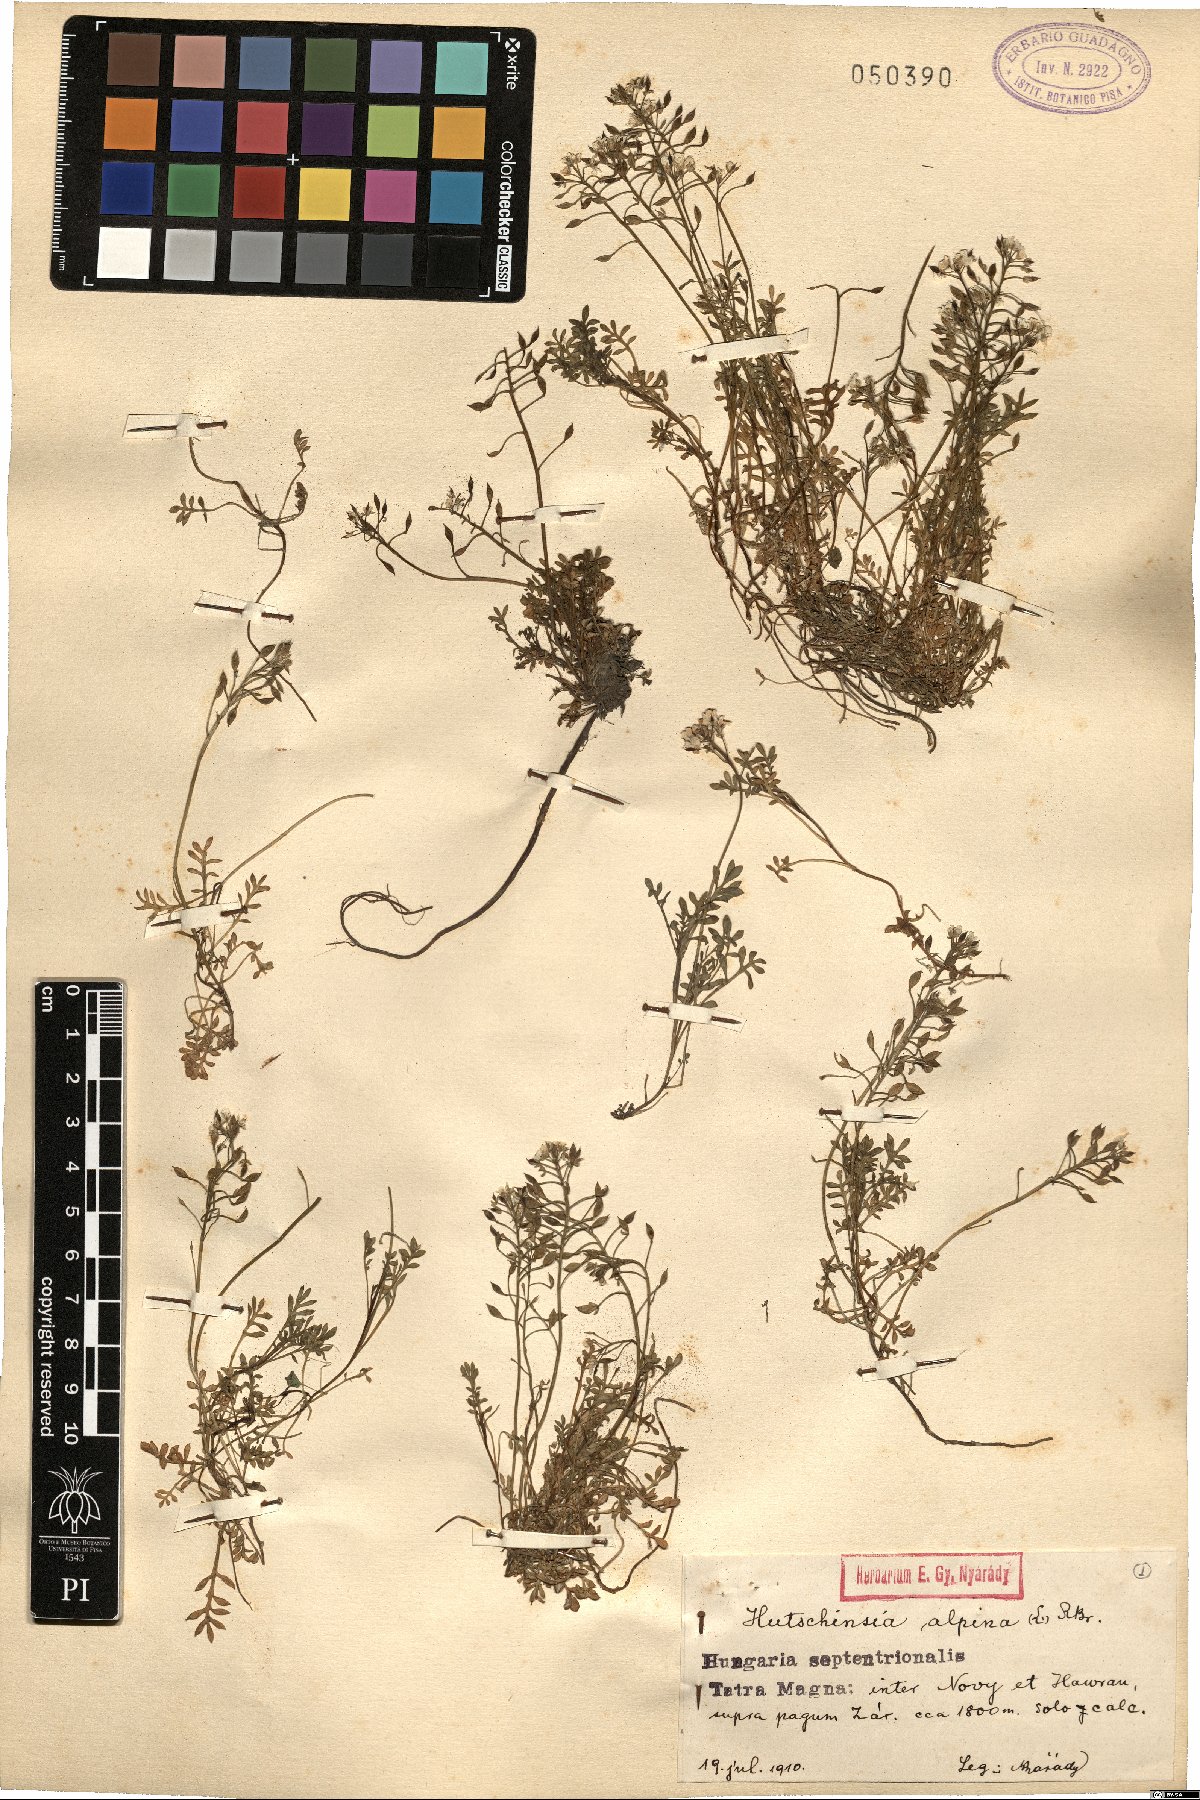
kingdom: Plantae
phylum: Tracheophyta
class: Magnoliopsida
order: Brassicales
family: Brassicaceae
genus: Hornungia
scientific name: Hornungia alpina
